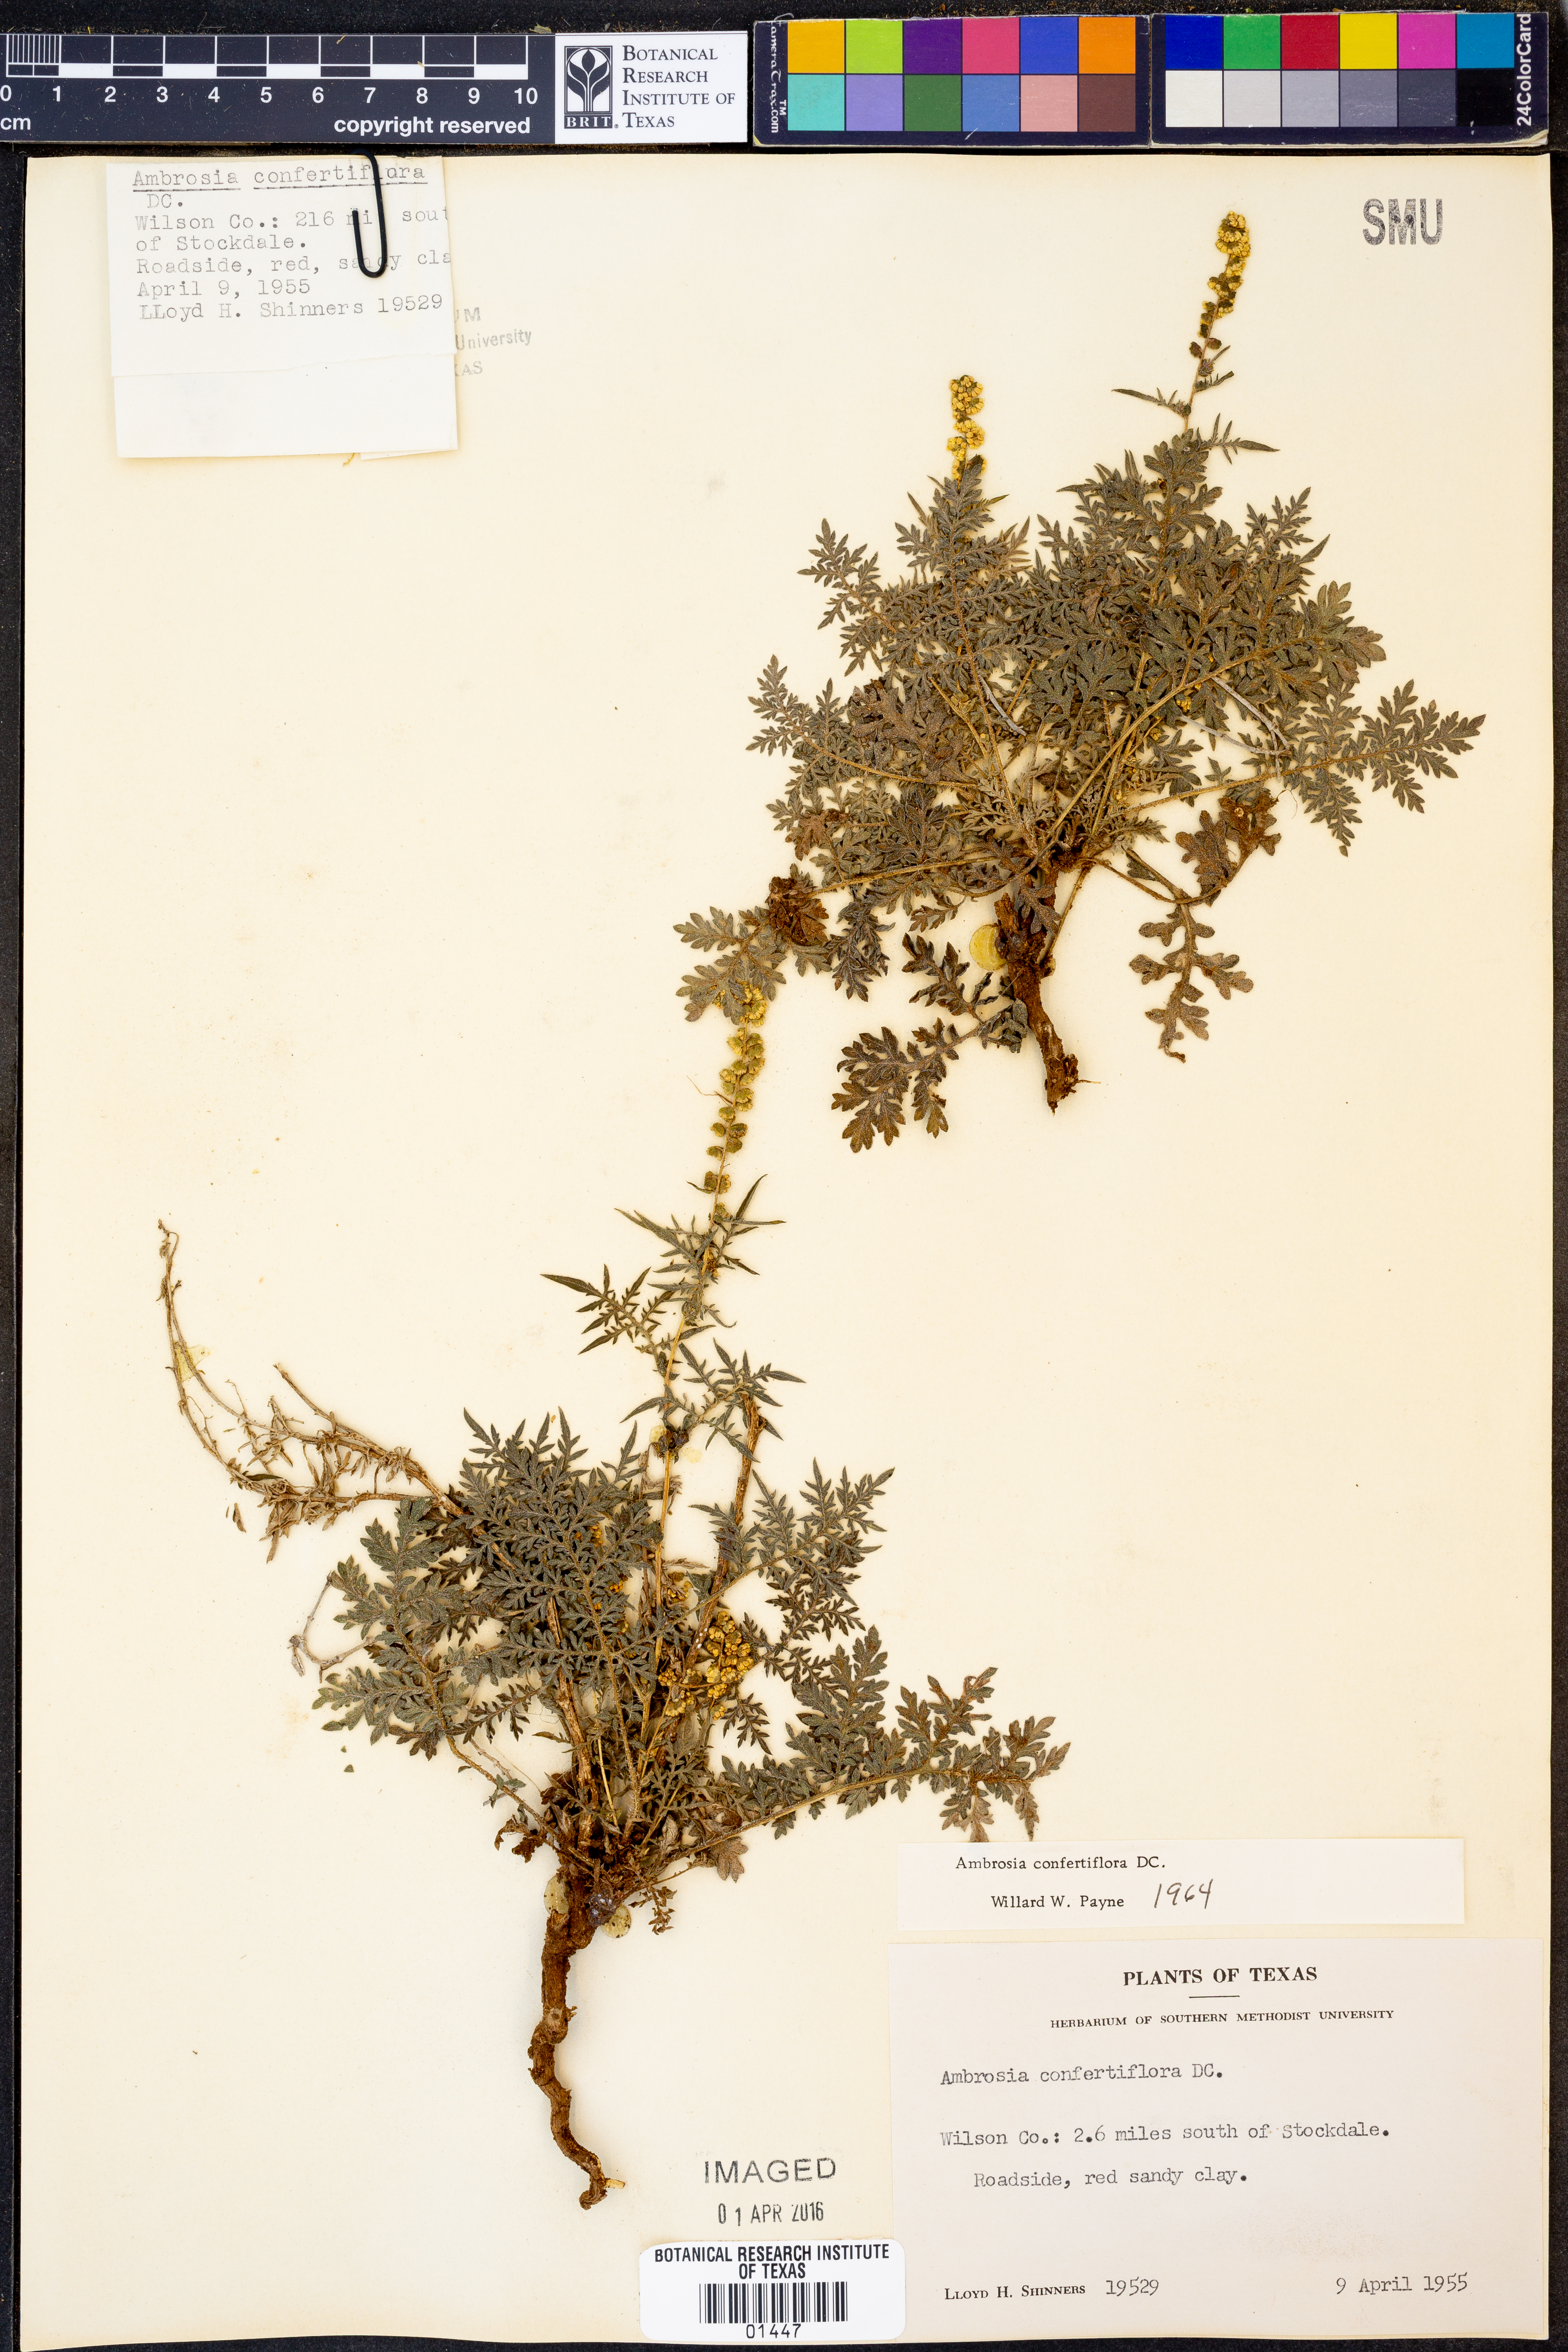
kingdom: Plantae
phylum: Tracheophyta
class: Magnoliopsida
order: Asterales
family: Asteraceae
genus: Ambrosia
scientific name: Ambrosia confertiflora
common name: Bur ragweed
